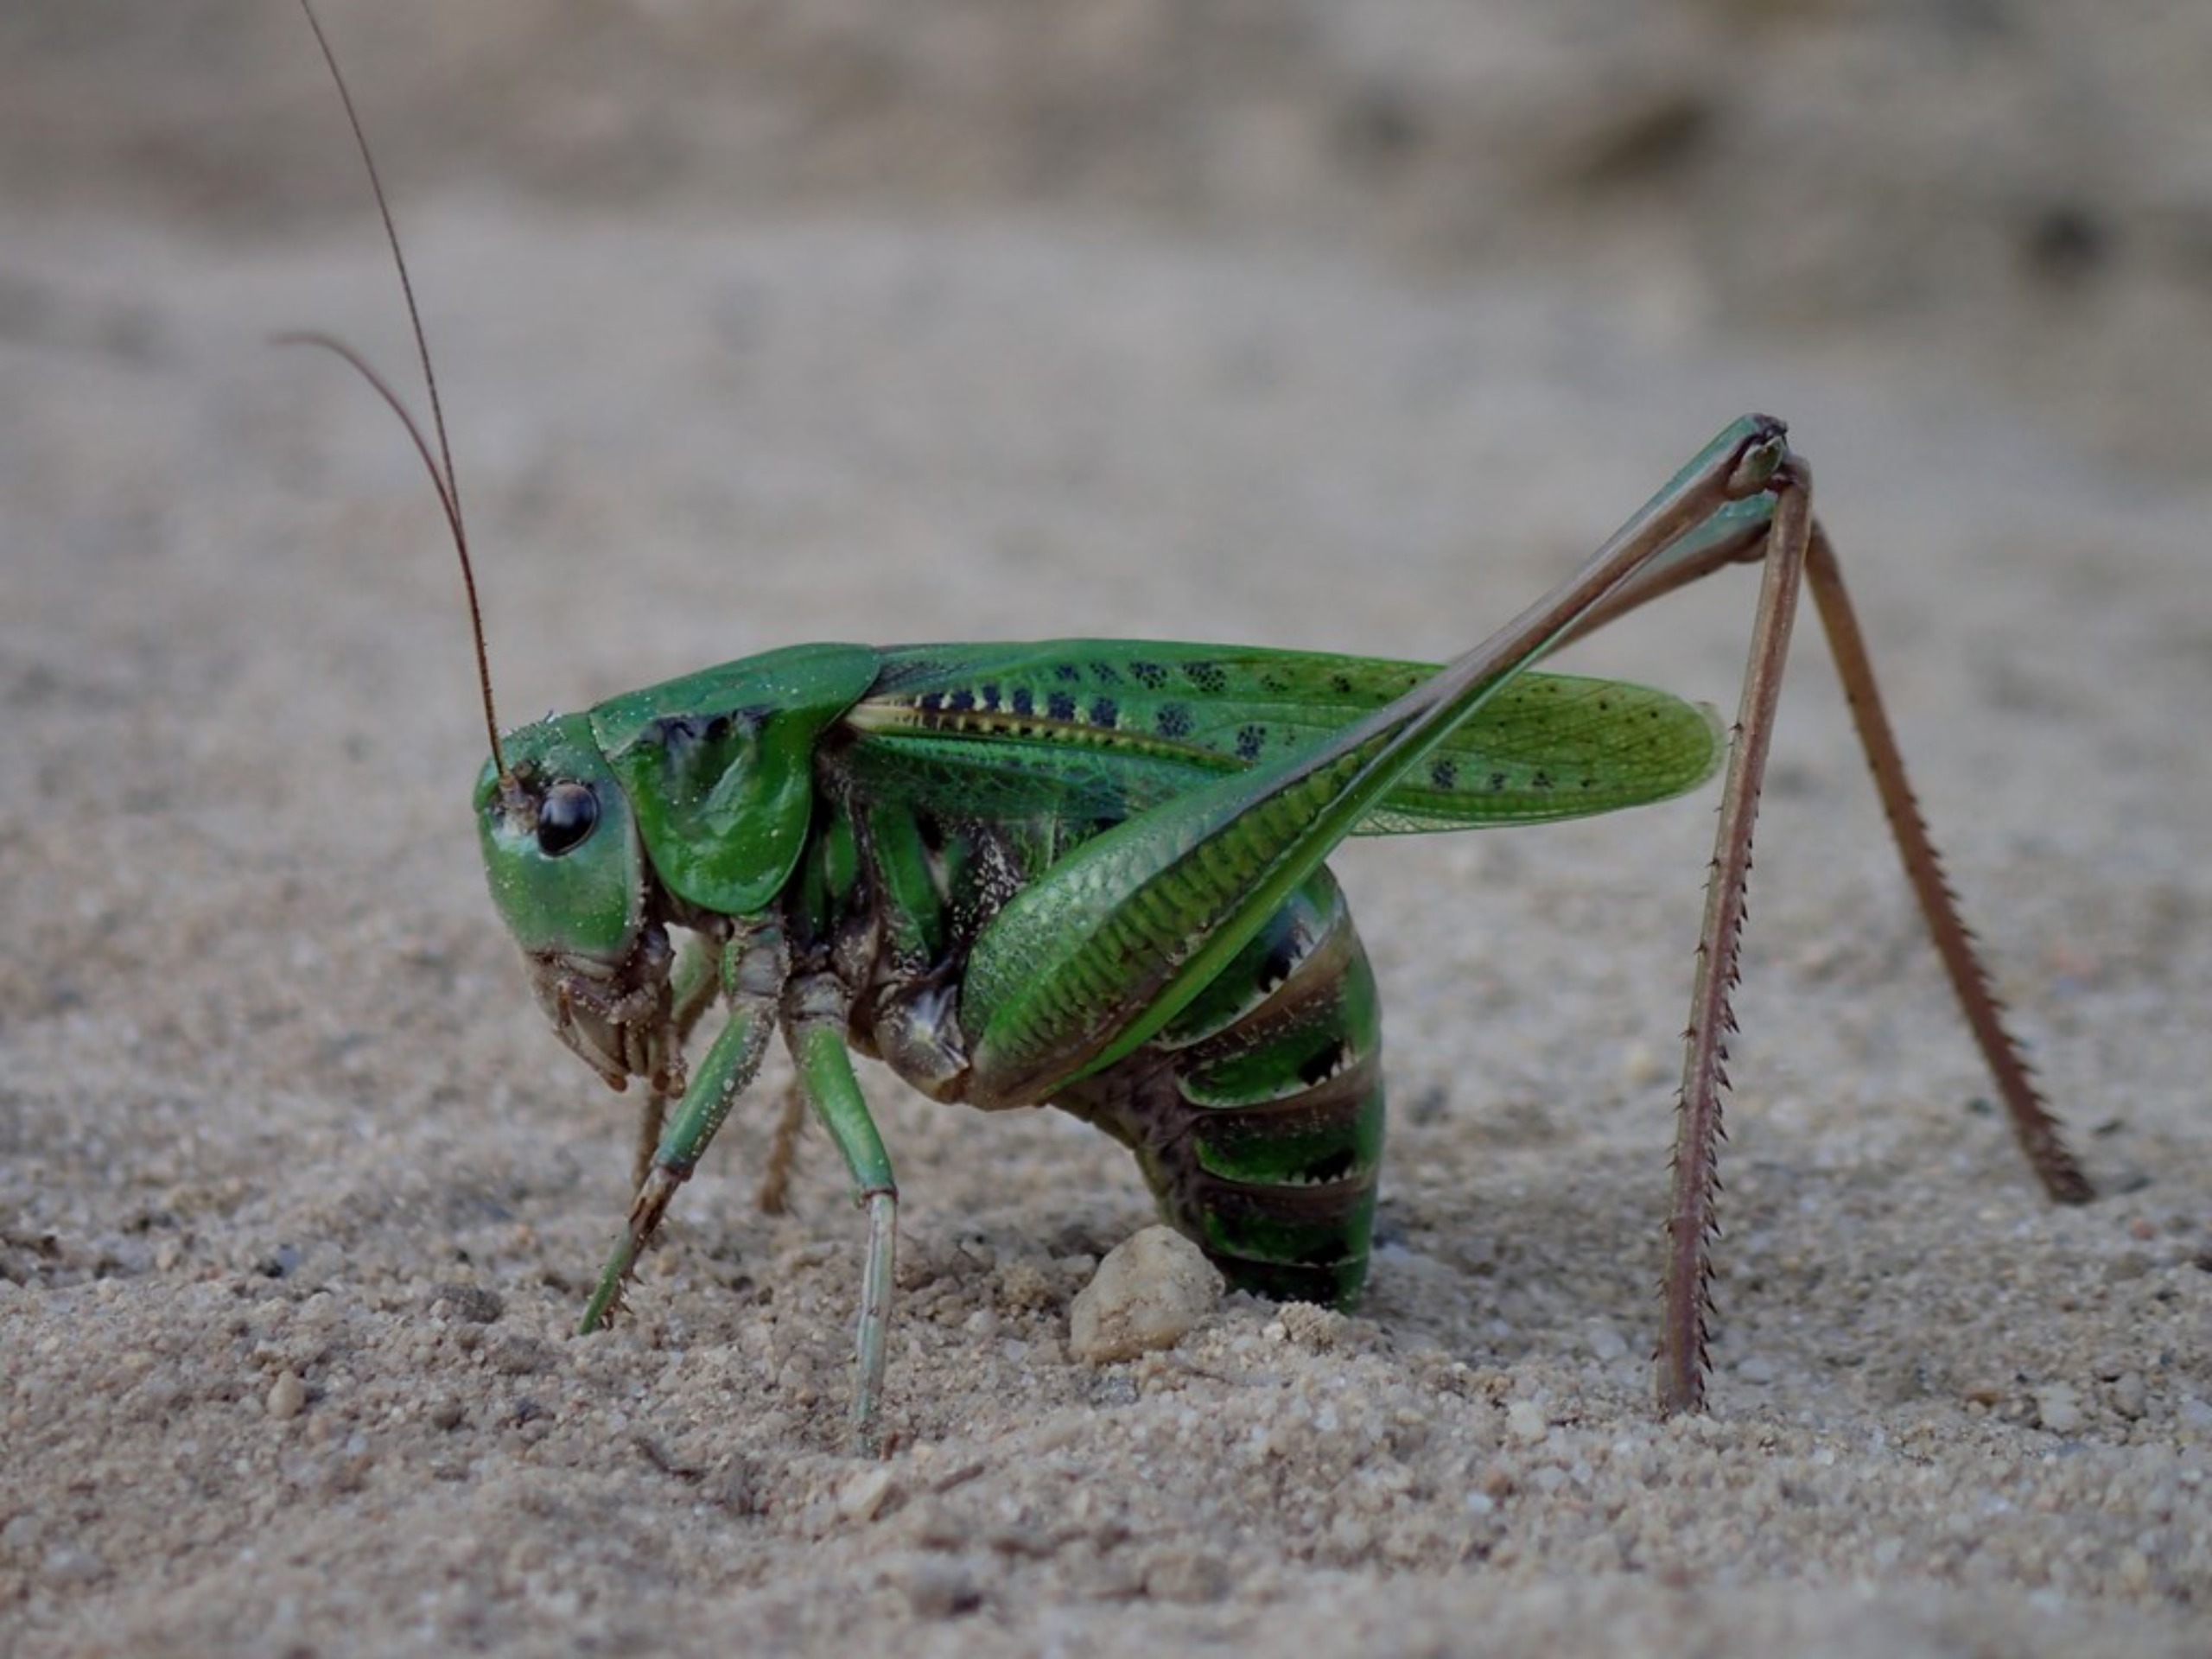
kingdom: Animalia
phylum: Arthropoda
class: Insecta
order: Orthoptera
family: Tettigoniidae
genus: Decticus
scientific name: Decticus verrucivorus
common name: Vortebider
